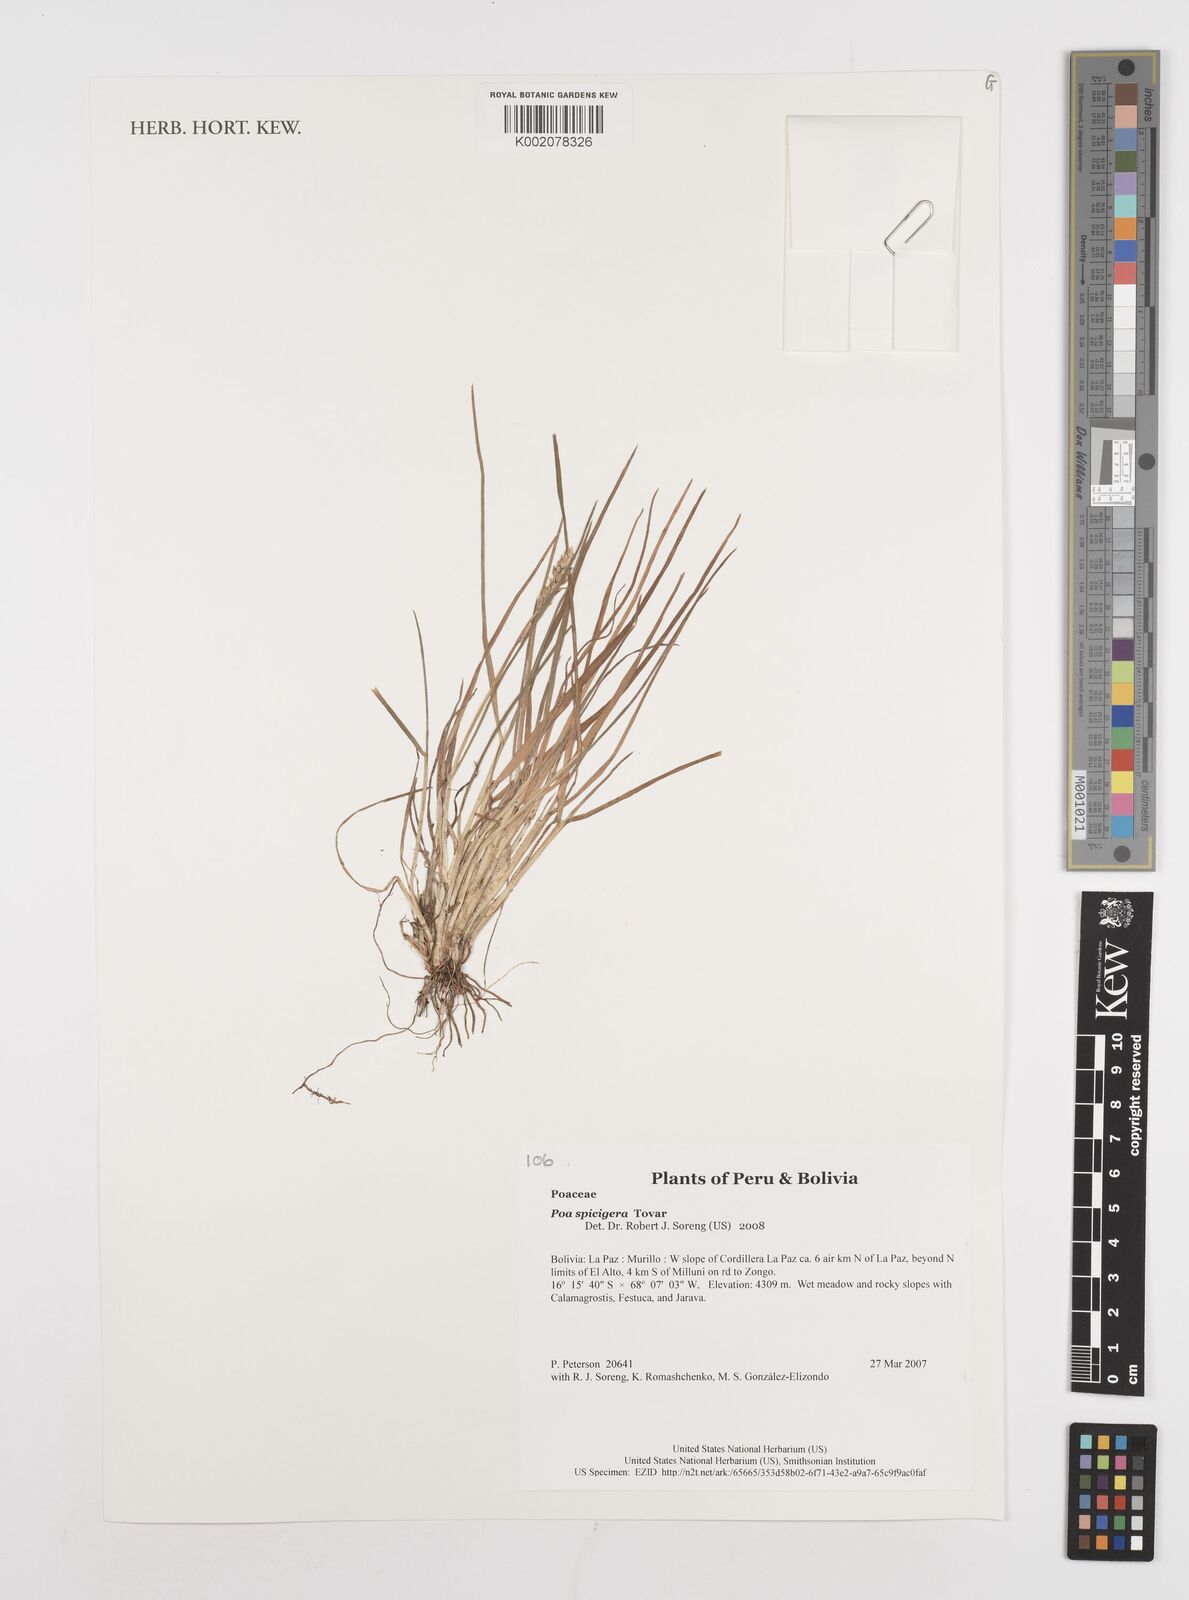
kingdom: Plantae
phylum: Tracheophyta
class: Liliopsida
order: Poales
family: Poaceae
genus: Poa
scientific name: Poa spicigera
